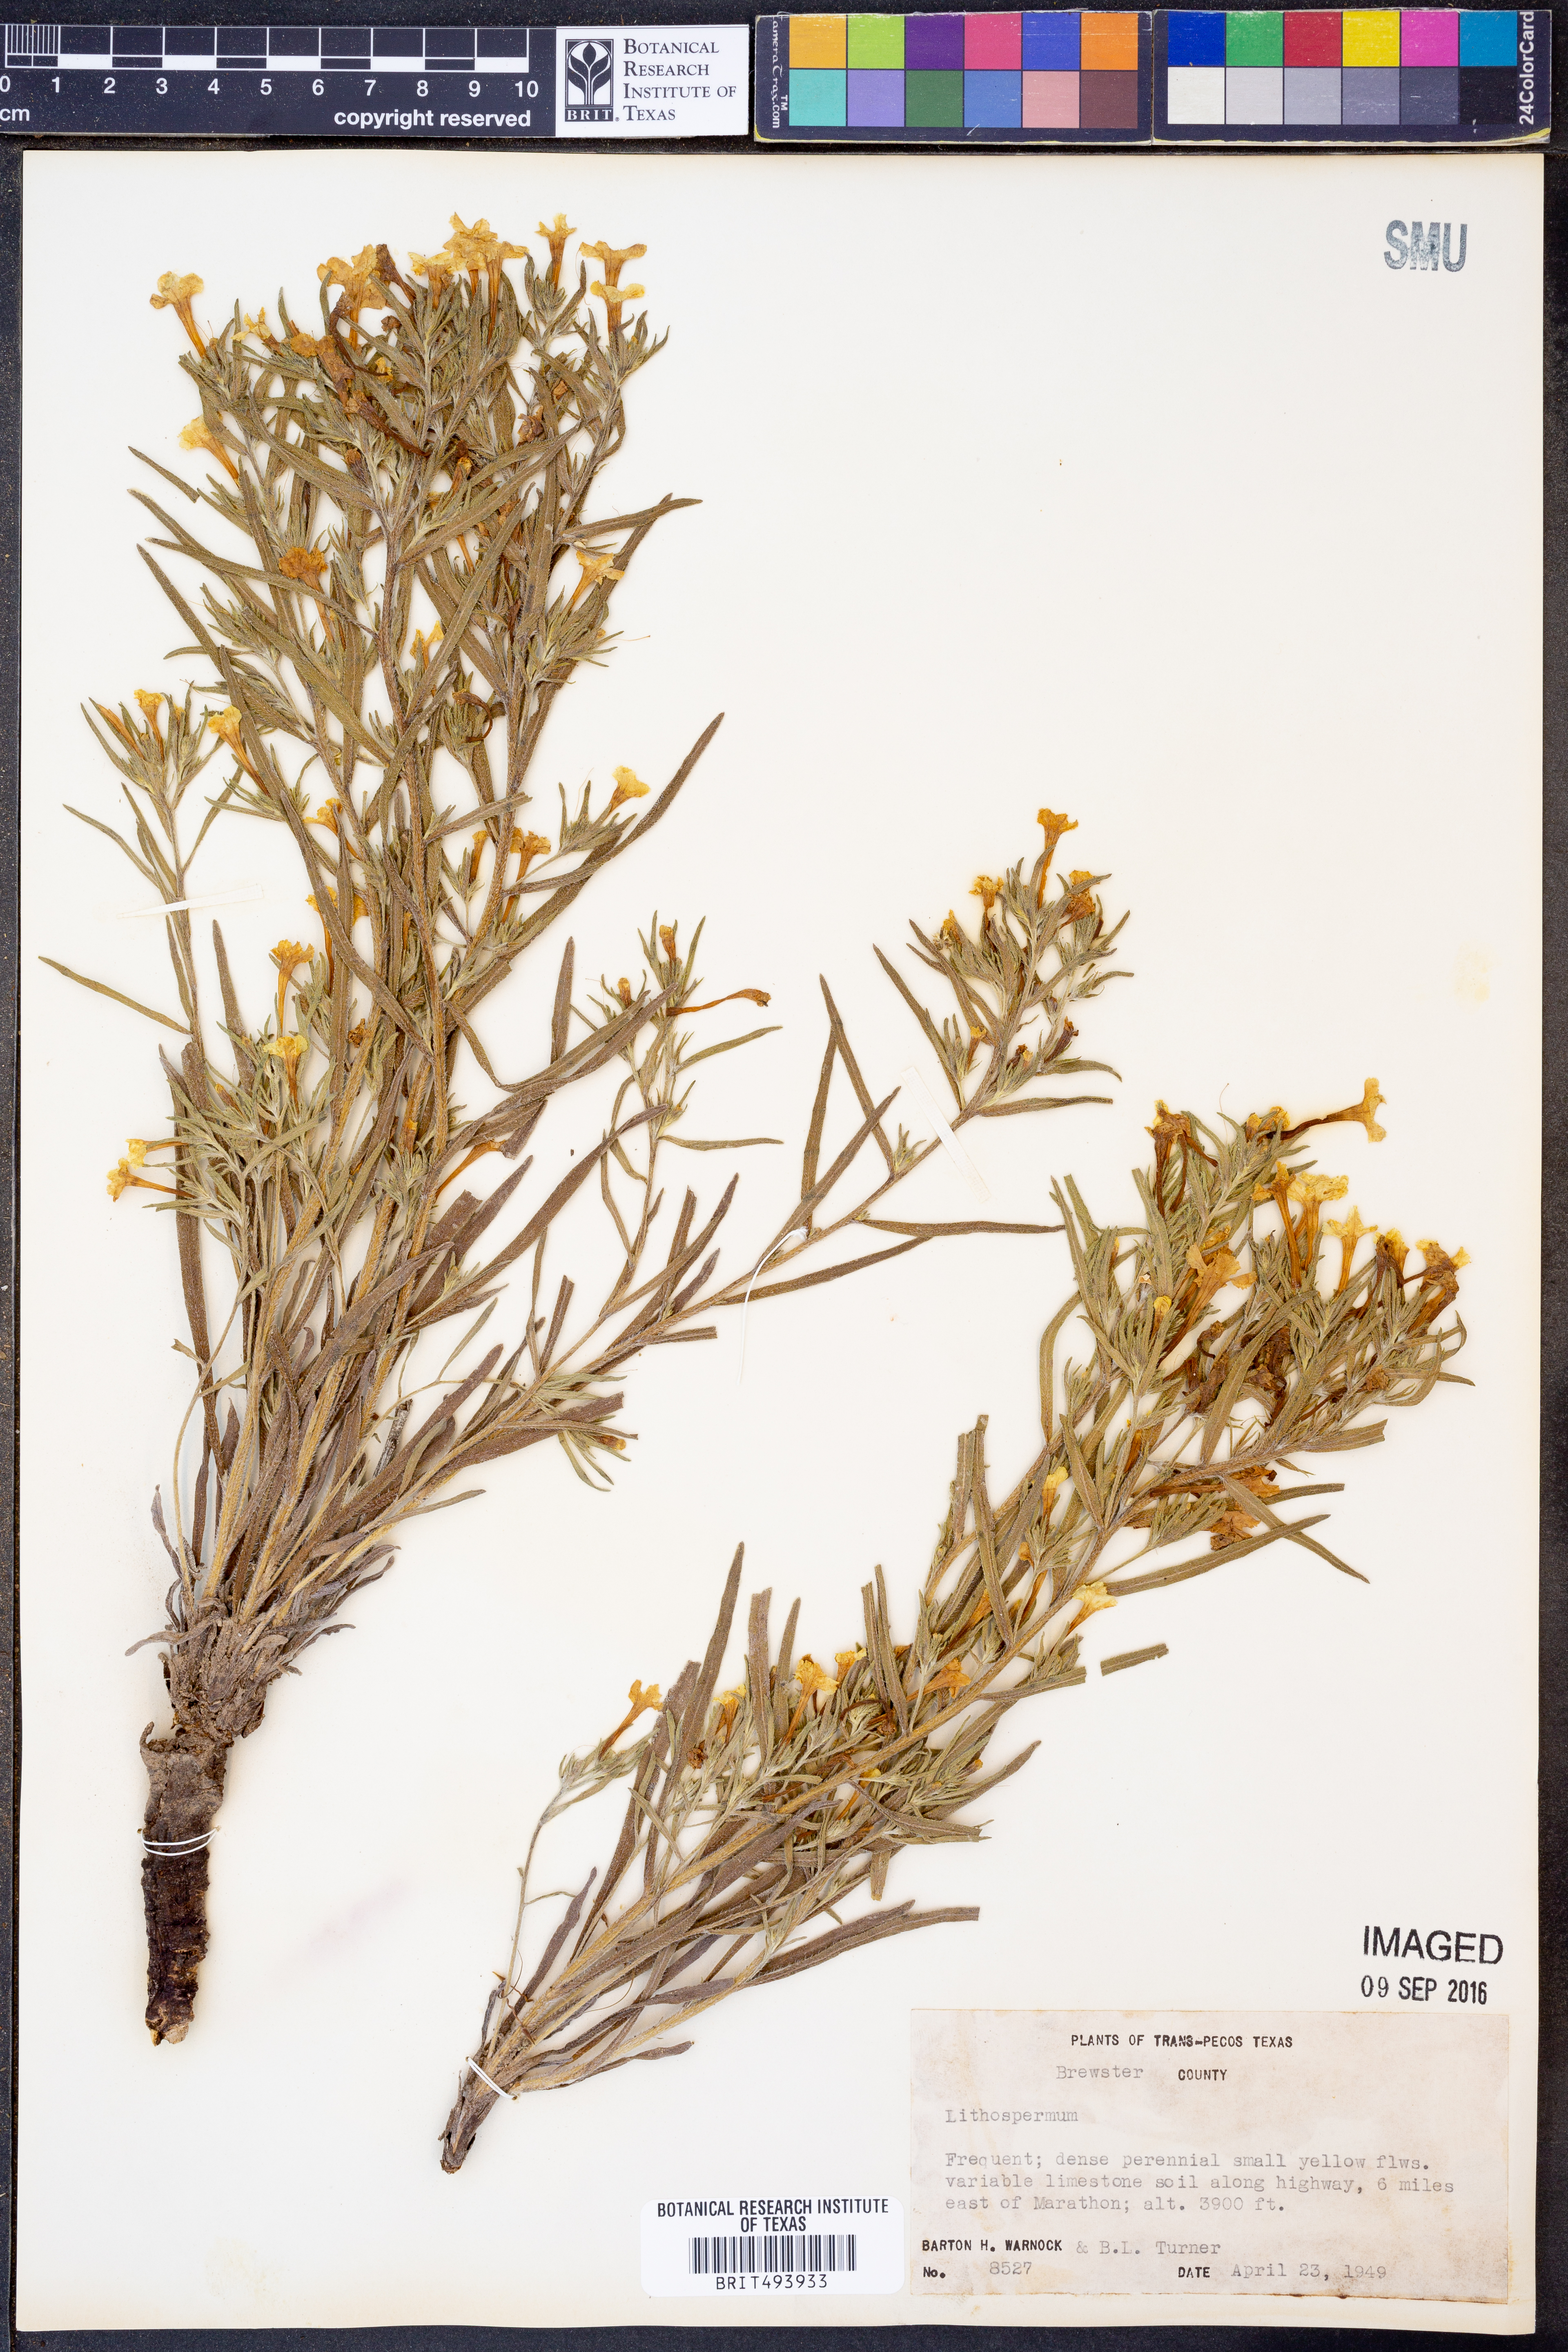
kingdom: Plantae
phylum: Tracheophyta
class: Magnoliopsida
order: Boraginales
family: Boraginaceae
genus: Lithospermum
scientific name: Lithospermum
